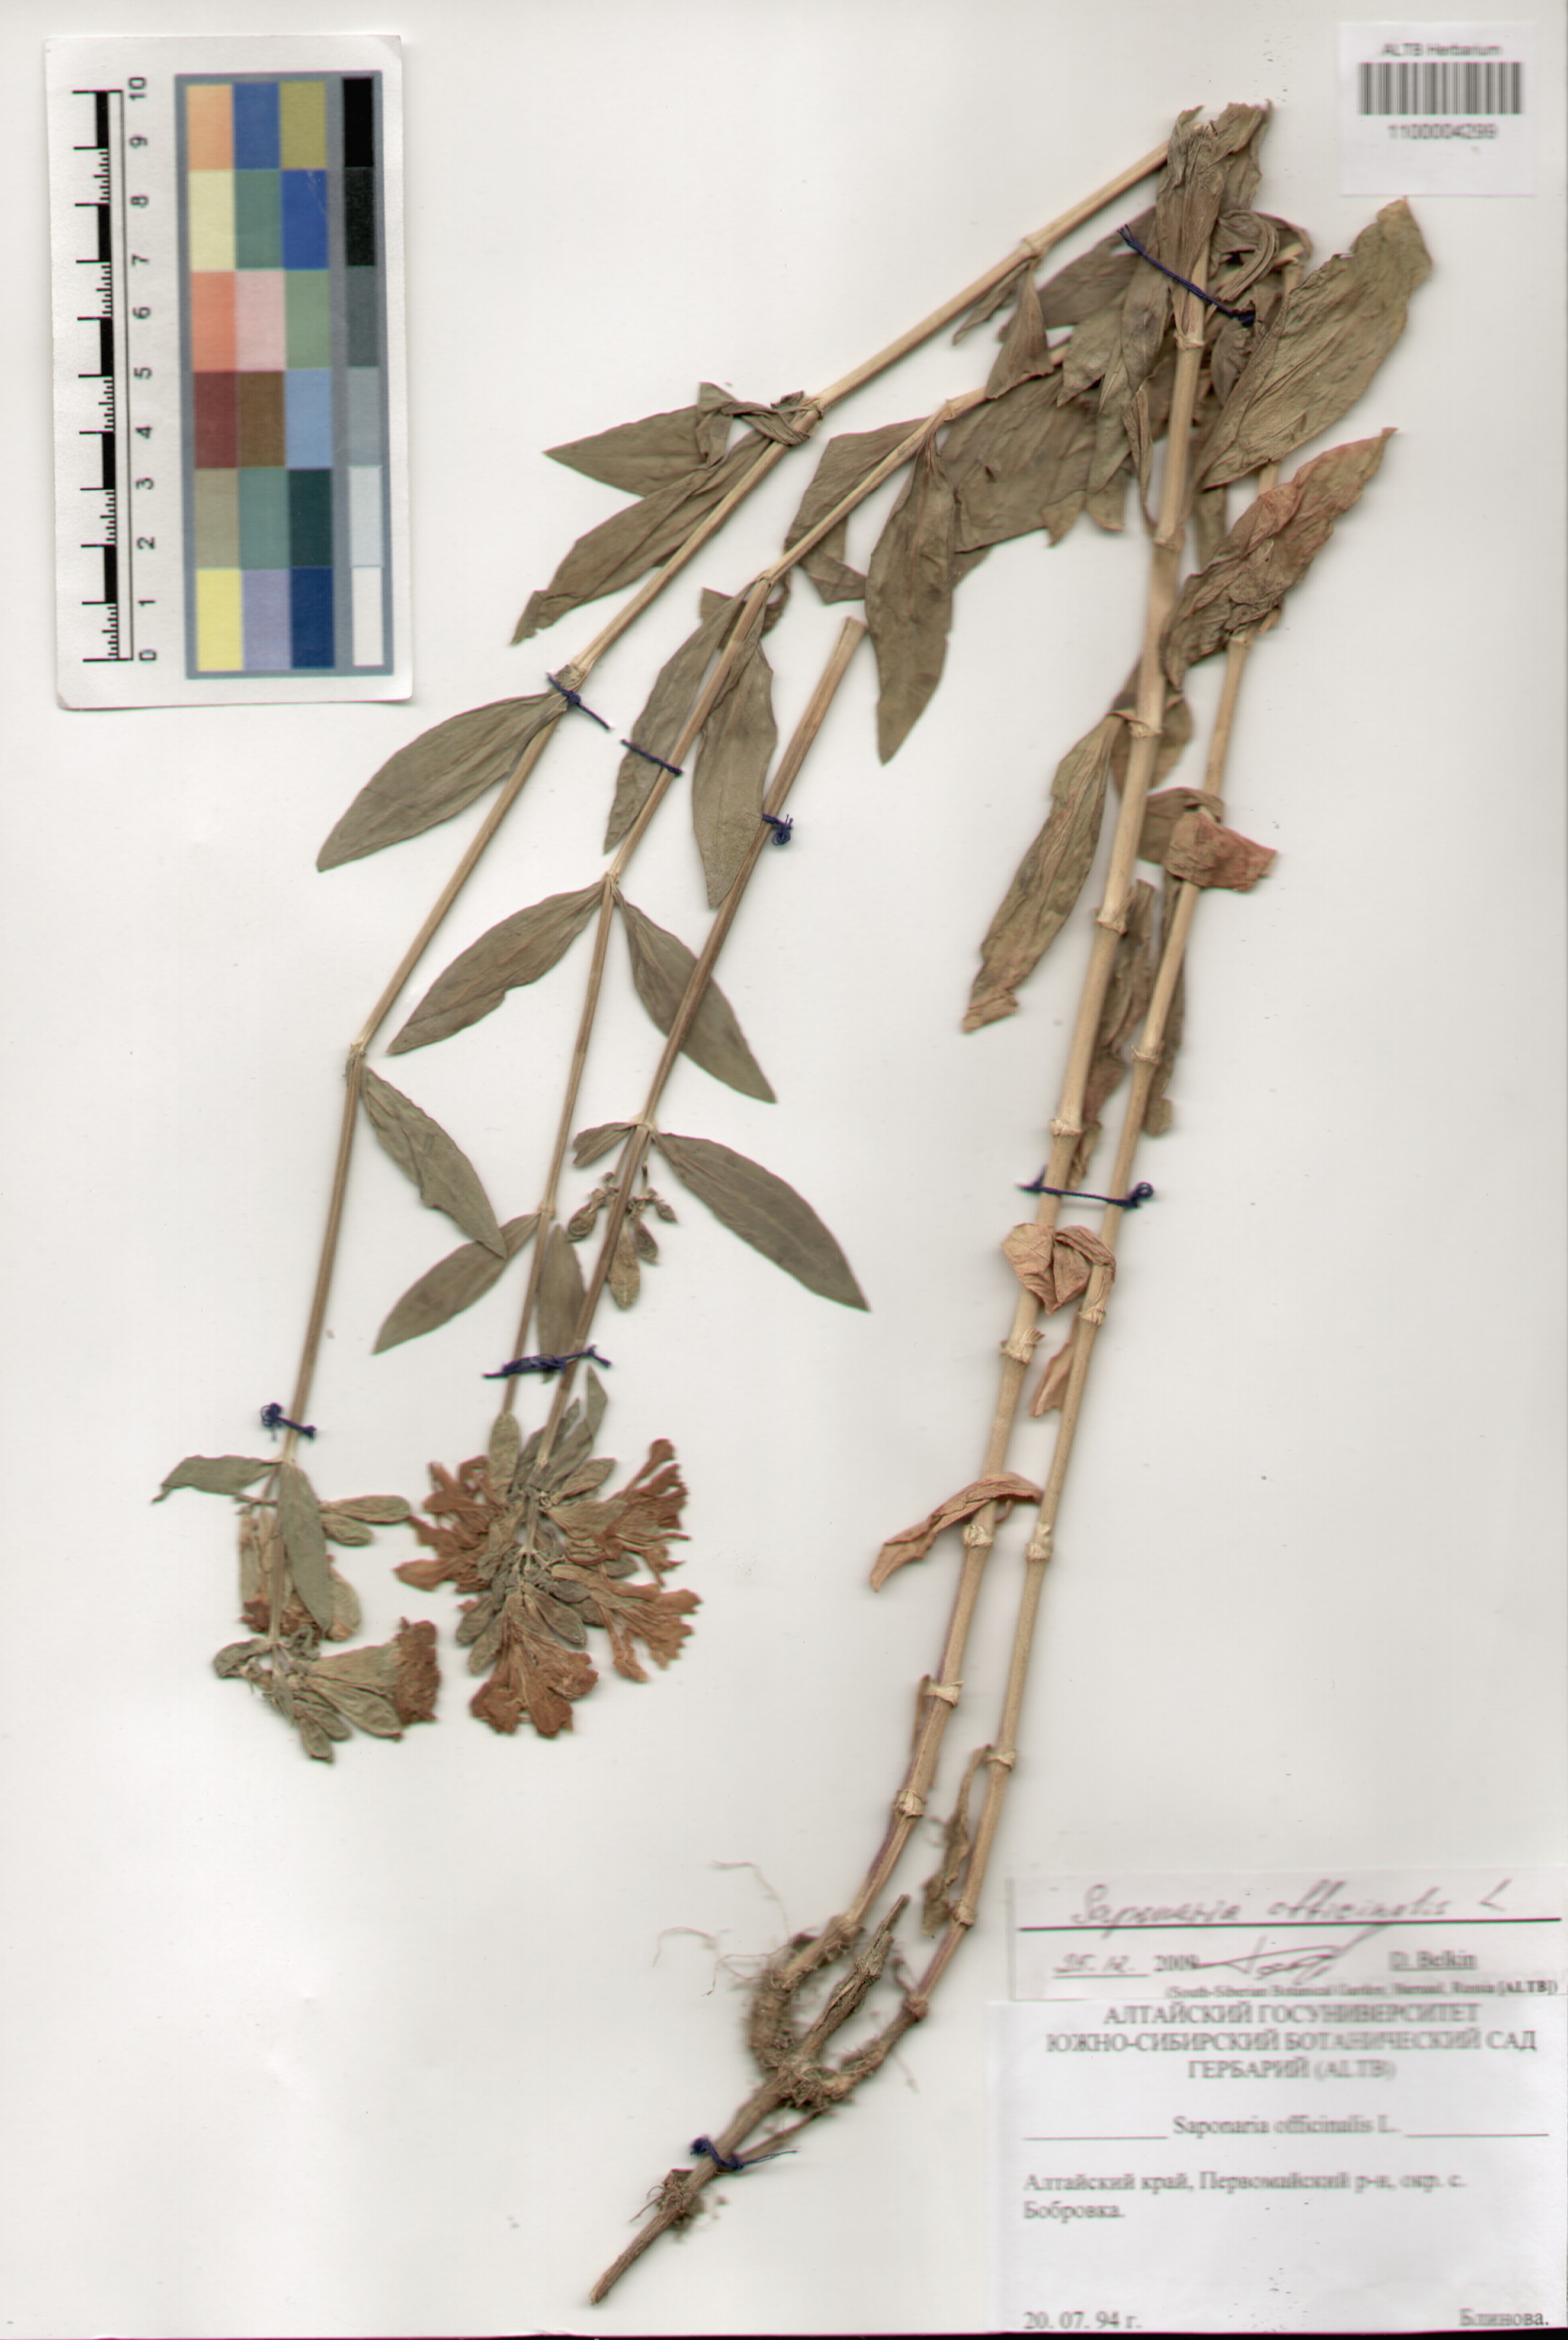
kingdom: Plantae
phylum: Tracheophyta
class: Magnoliopsida
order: Caryophyllales
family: Caryophyllaceae
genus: Saponaria
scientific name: Saponaria officinalis
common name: Soapwort
